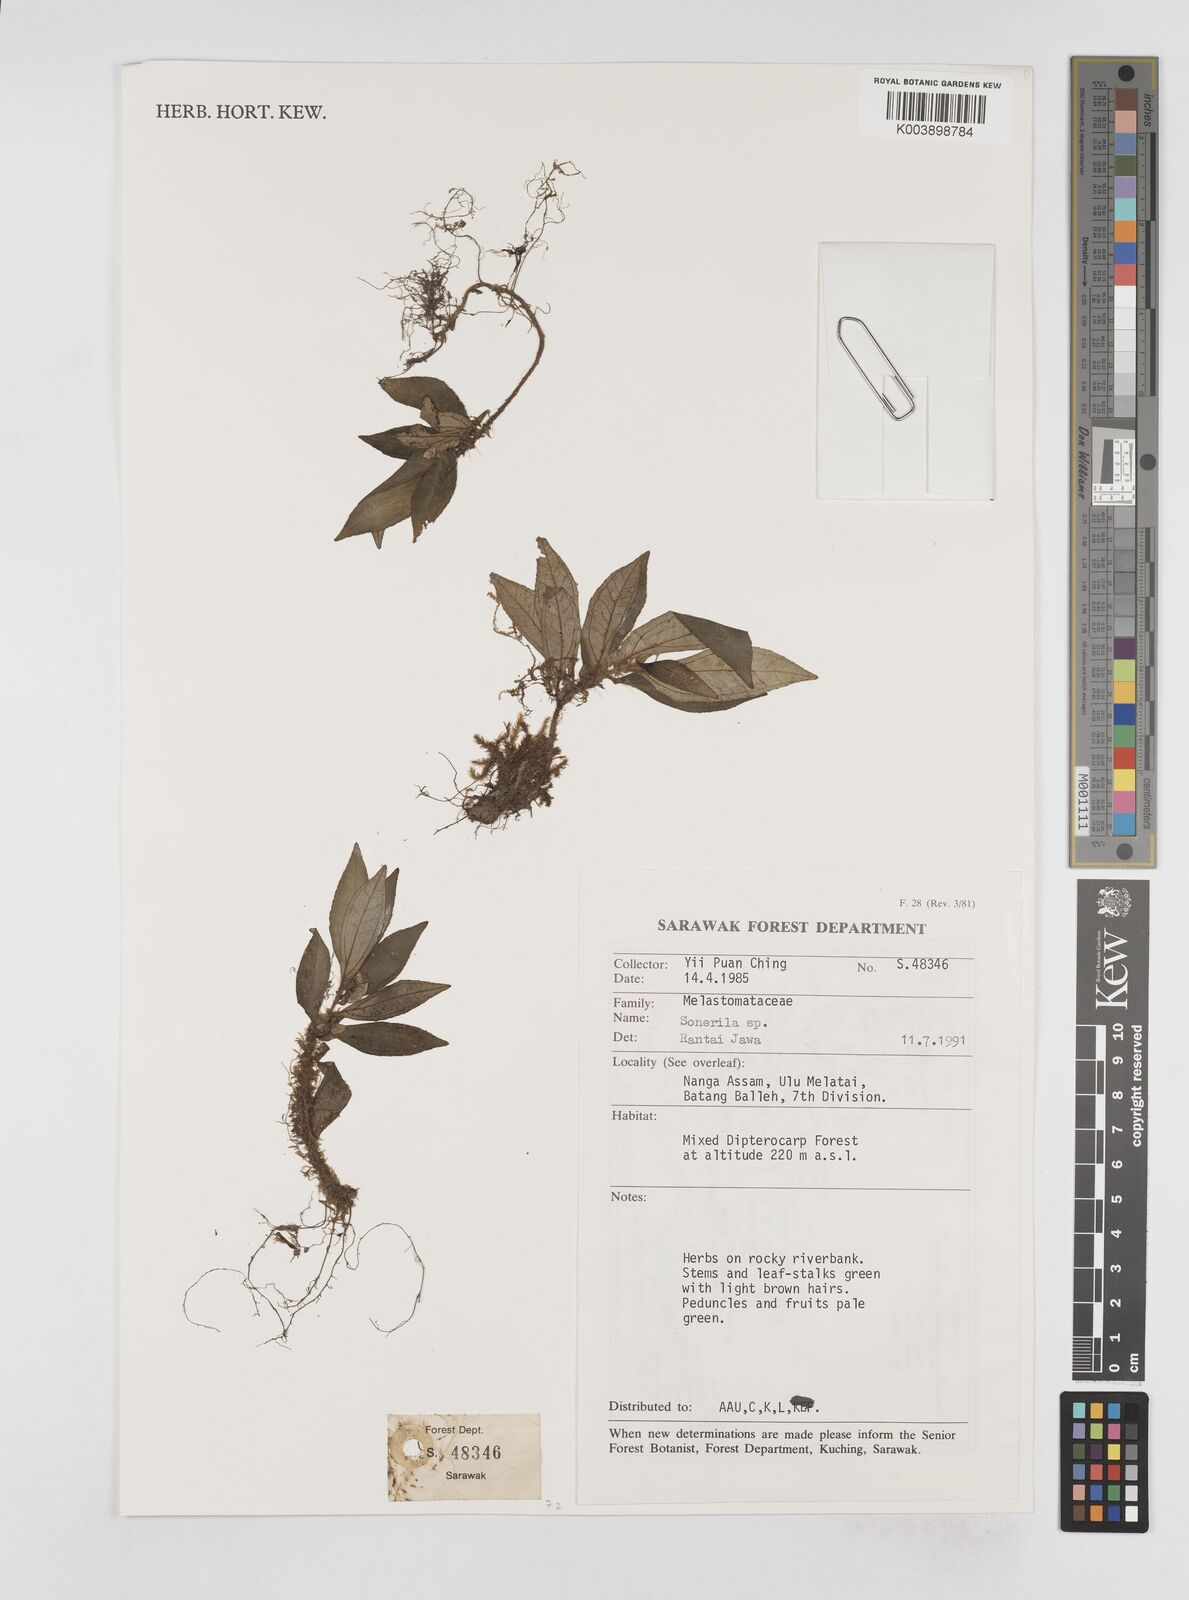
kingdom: Plantae
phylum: Tracheophyta
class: Magnoliopsida
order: Myrtales
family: Melastomataceae
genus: Sonerila
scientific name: Sonerila
